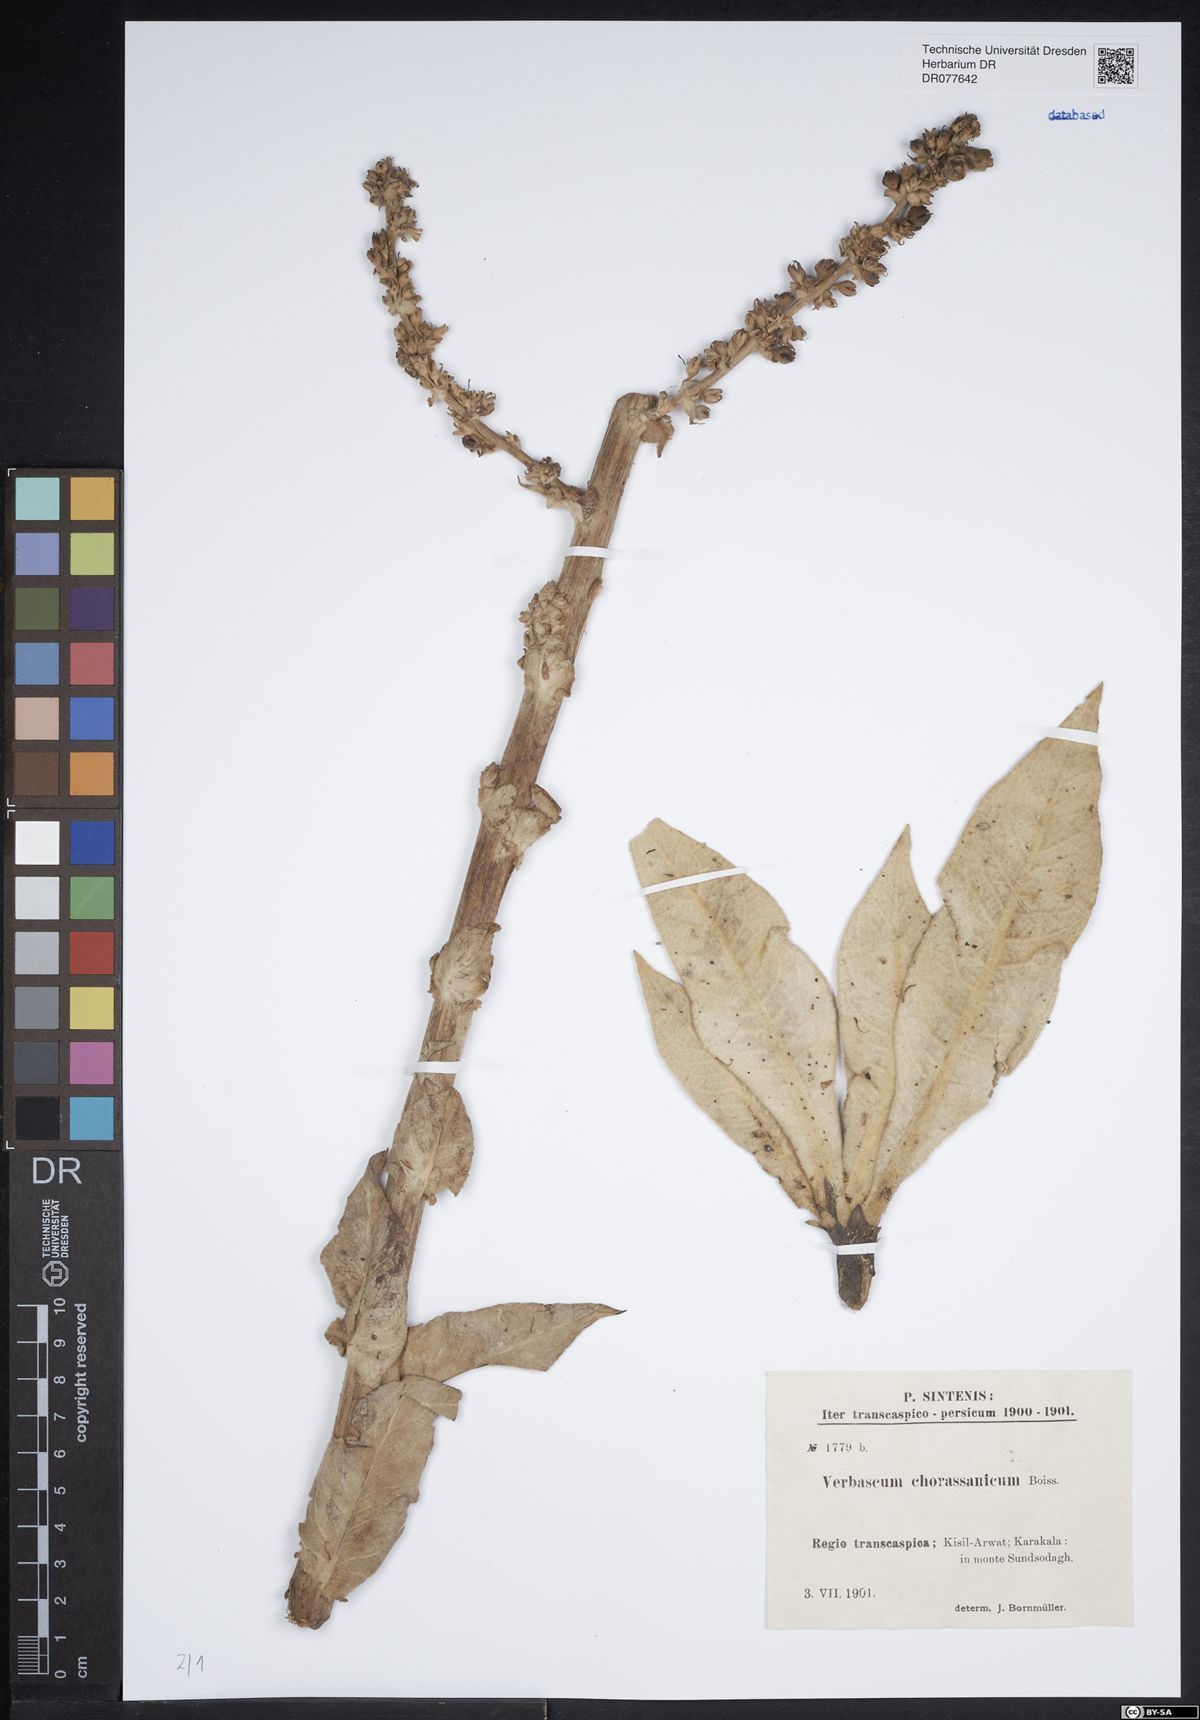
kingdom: Plantae
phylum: Tracheophyta
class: Magnoliopsida
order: Lamiales
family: Scrophulariaceae
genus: Verbascum
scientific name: Verbascum
